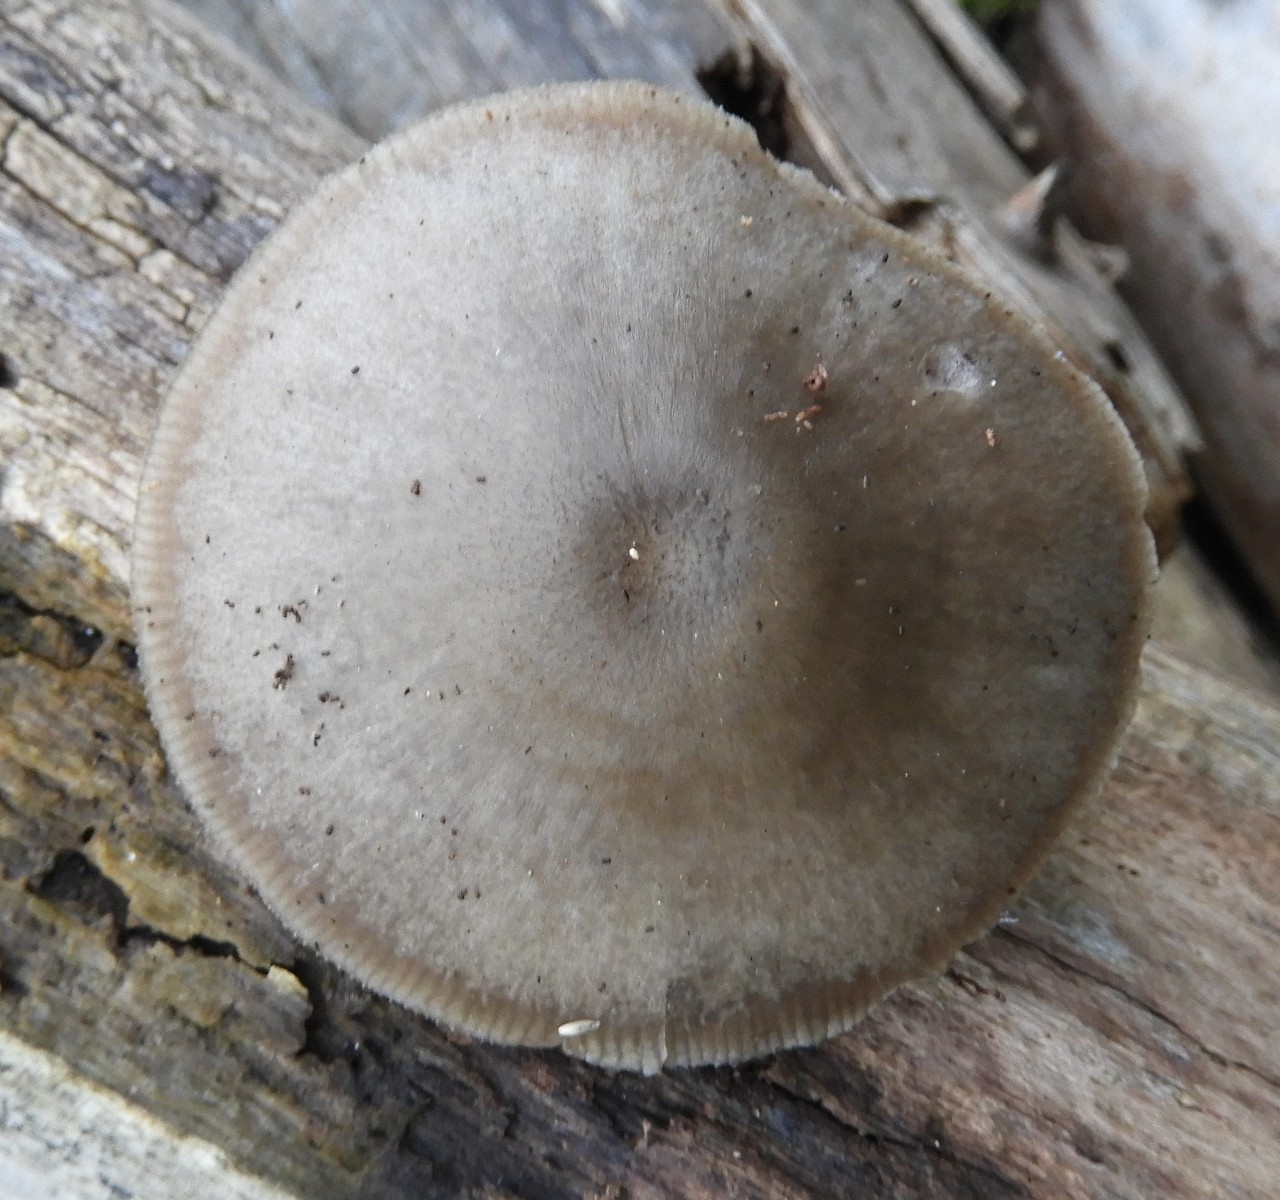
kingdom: Fungi
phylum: Basidiomycota
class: Agaricomycetes
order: Agaricales
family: Pluteaceae
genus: Pluteus
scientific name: Pluteus salicinus
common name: stiv skærmhat
